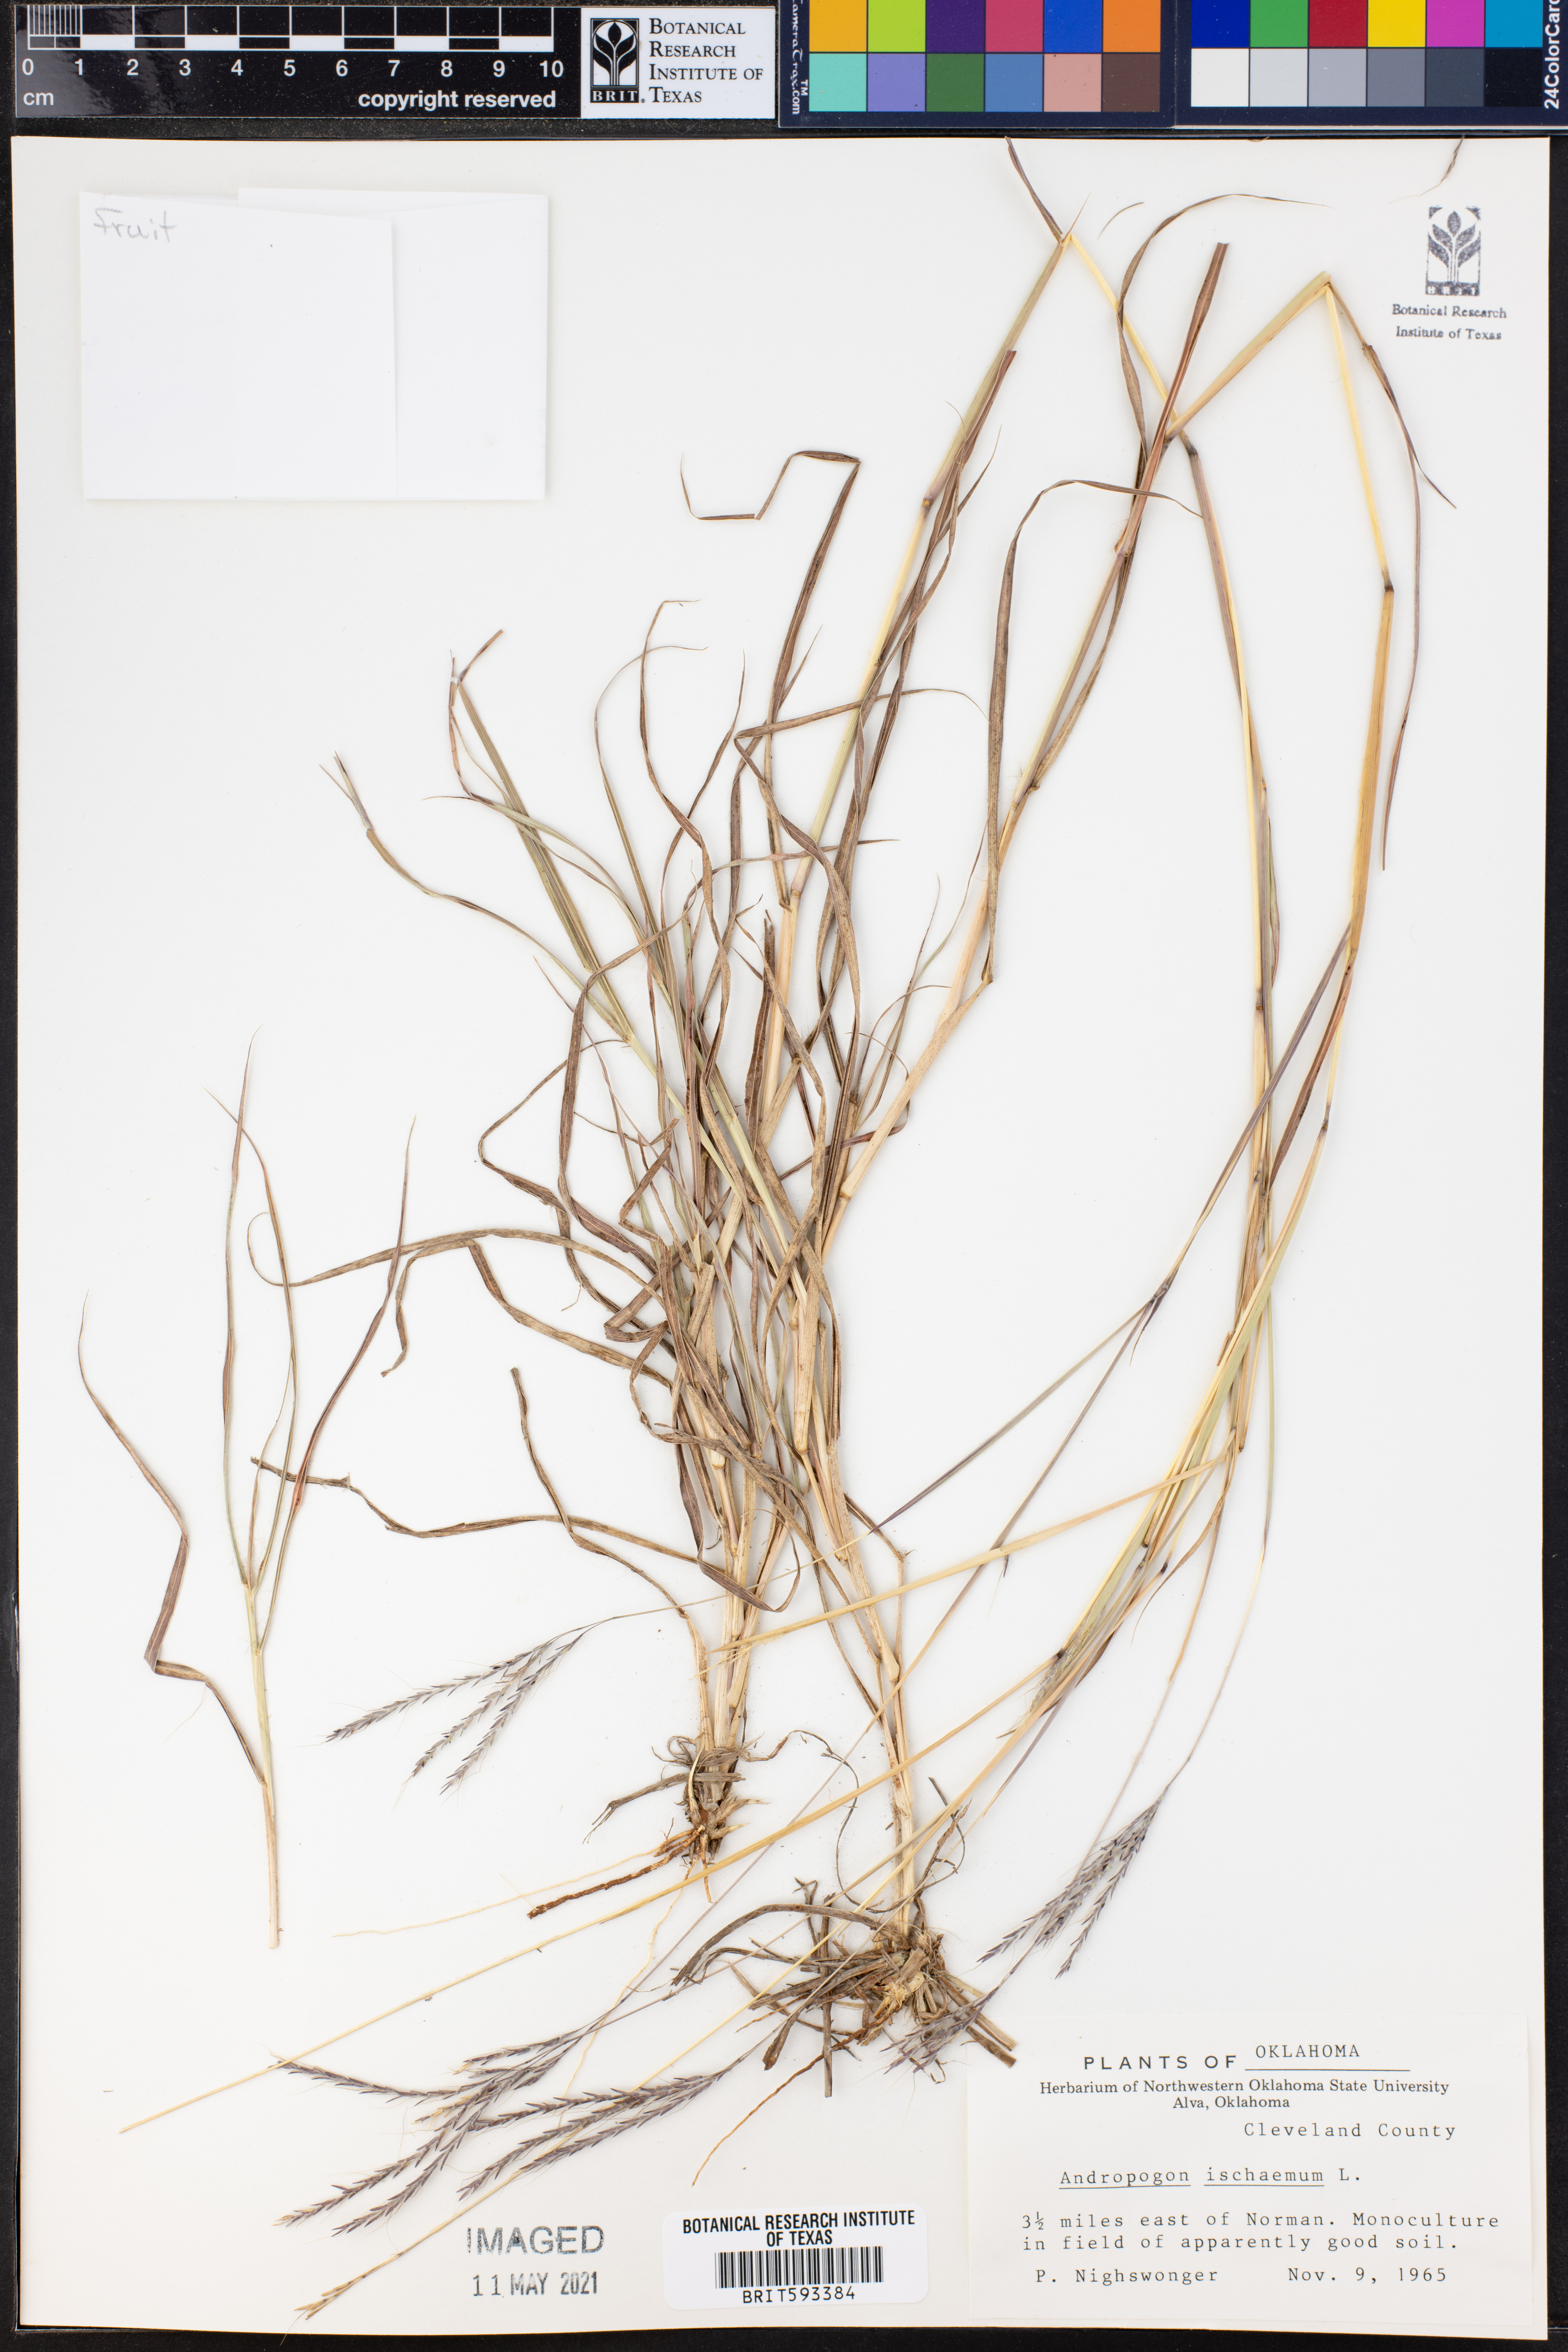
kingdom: Plantae
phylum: Tracheophyta
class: Liliopsida
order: Poales
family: Poaceae
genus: Andropogon
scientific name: Andropogon ischaemum
